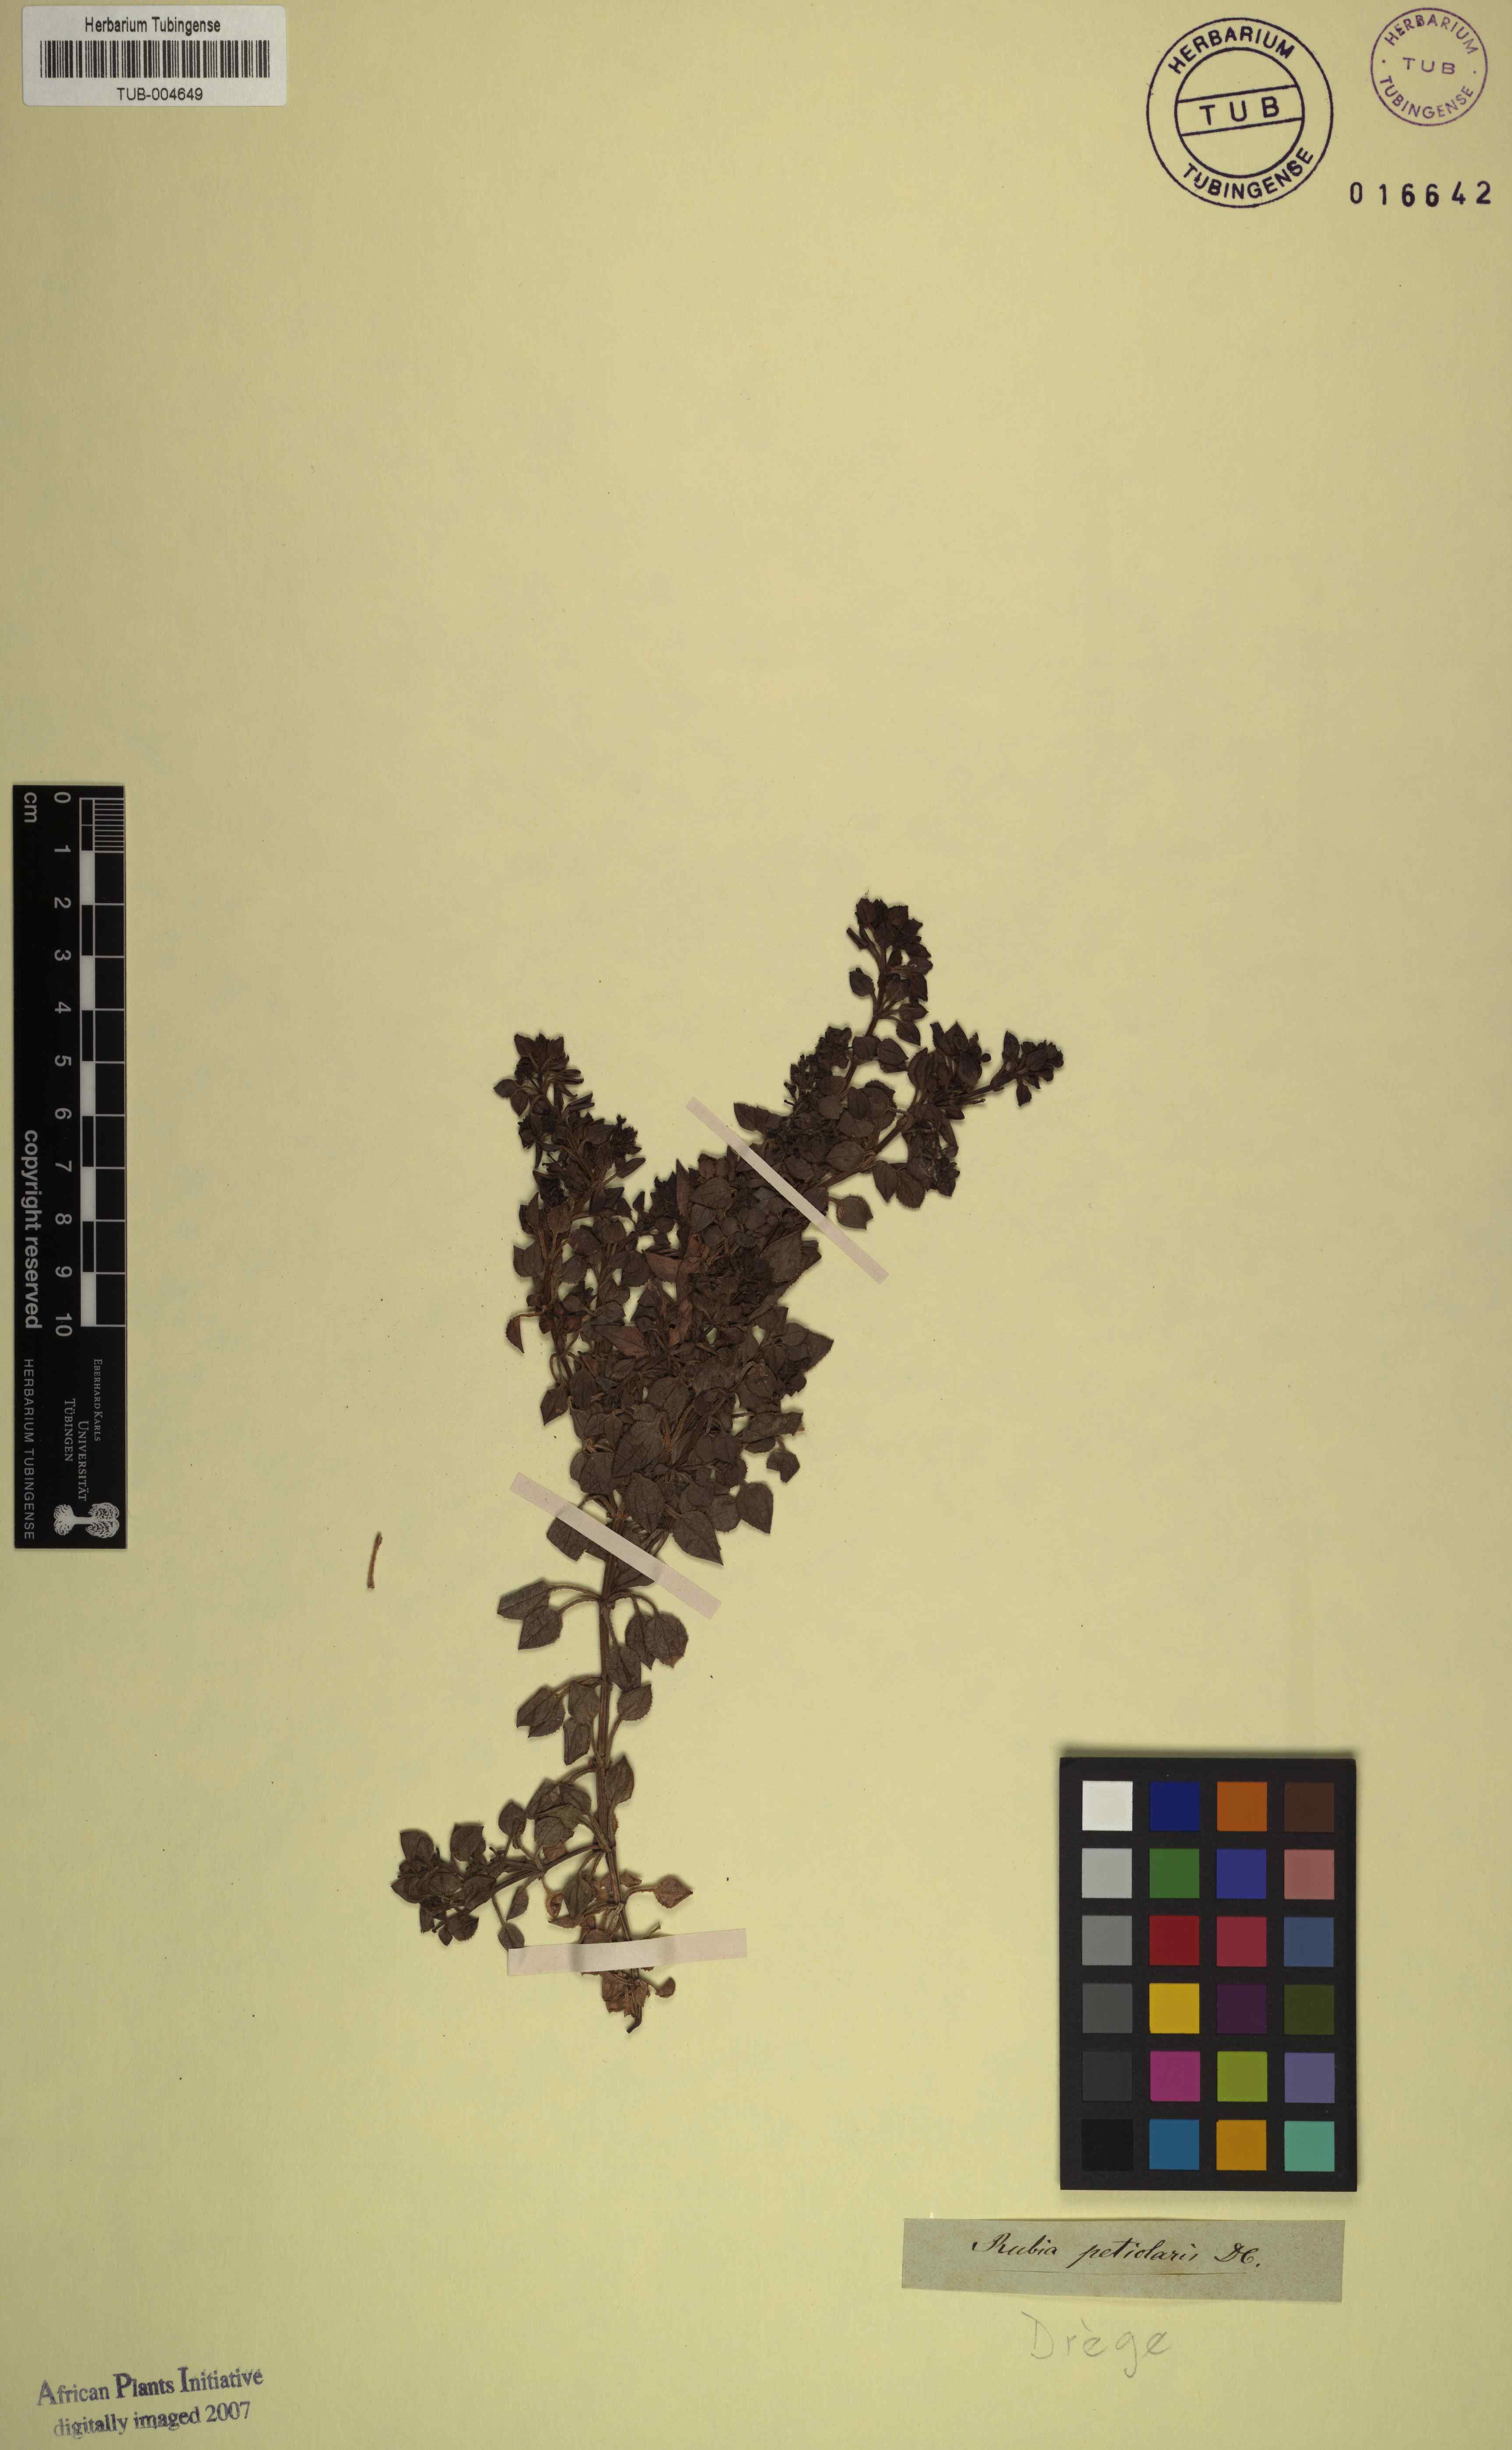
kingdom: Plantae
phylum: Tracheophyta
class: Magnoliopsida
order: Gentianales
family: Rubiaceae
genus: Rubia
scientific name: Rubia petiolaris
